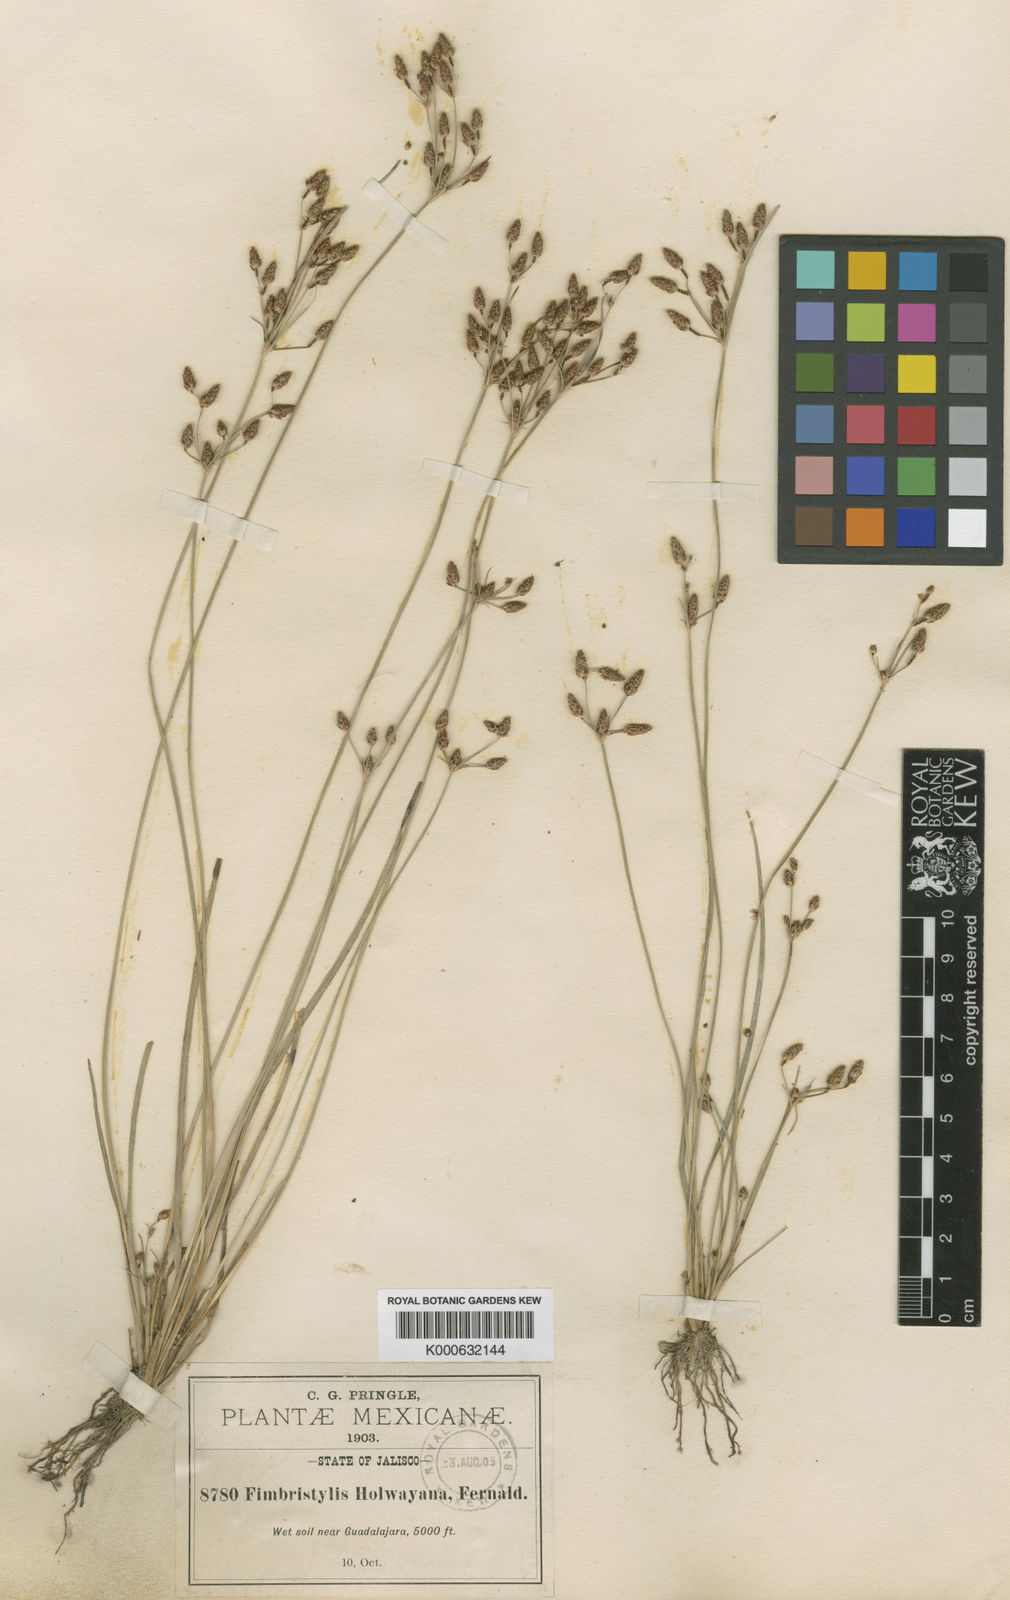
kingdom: Plantae
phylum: Tracheophyta
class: Liliopsida
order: Poales
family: Cyperaceae
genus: Fimbristylis
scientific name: Fimbristylis dichotoma
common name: Forked fimbry
